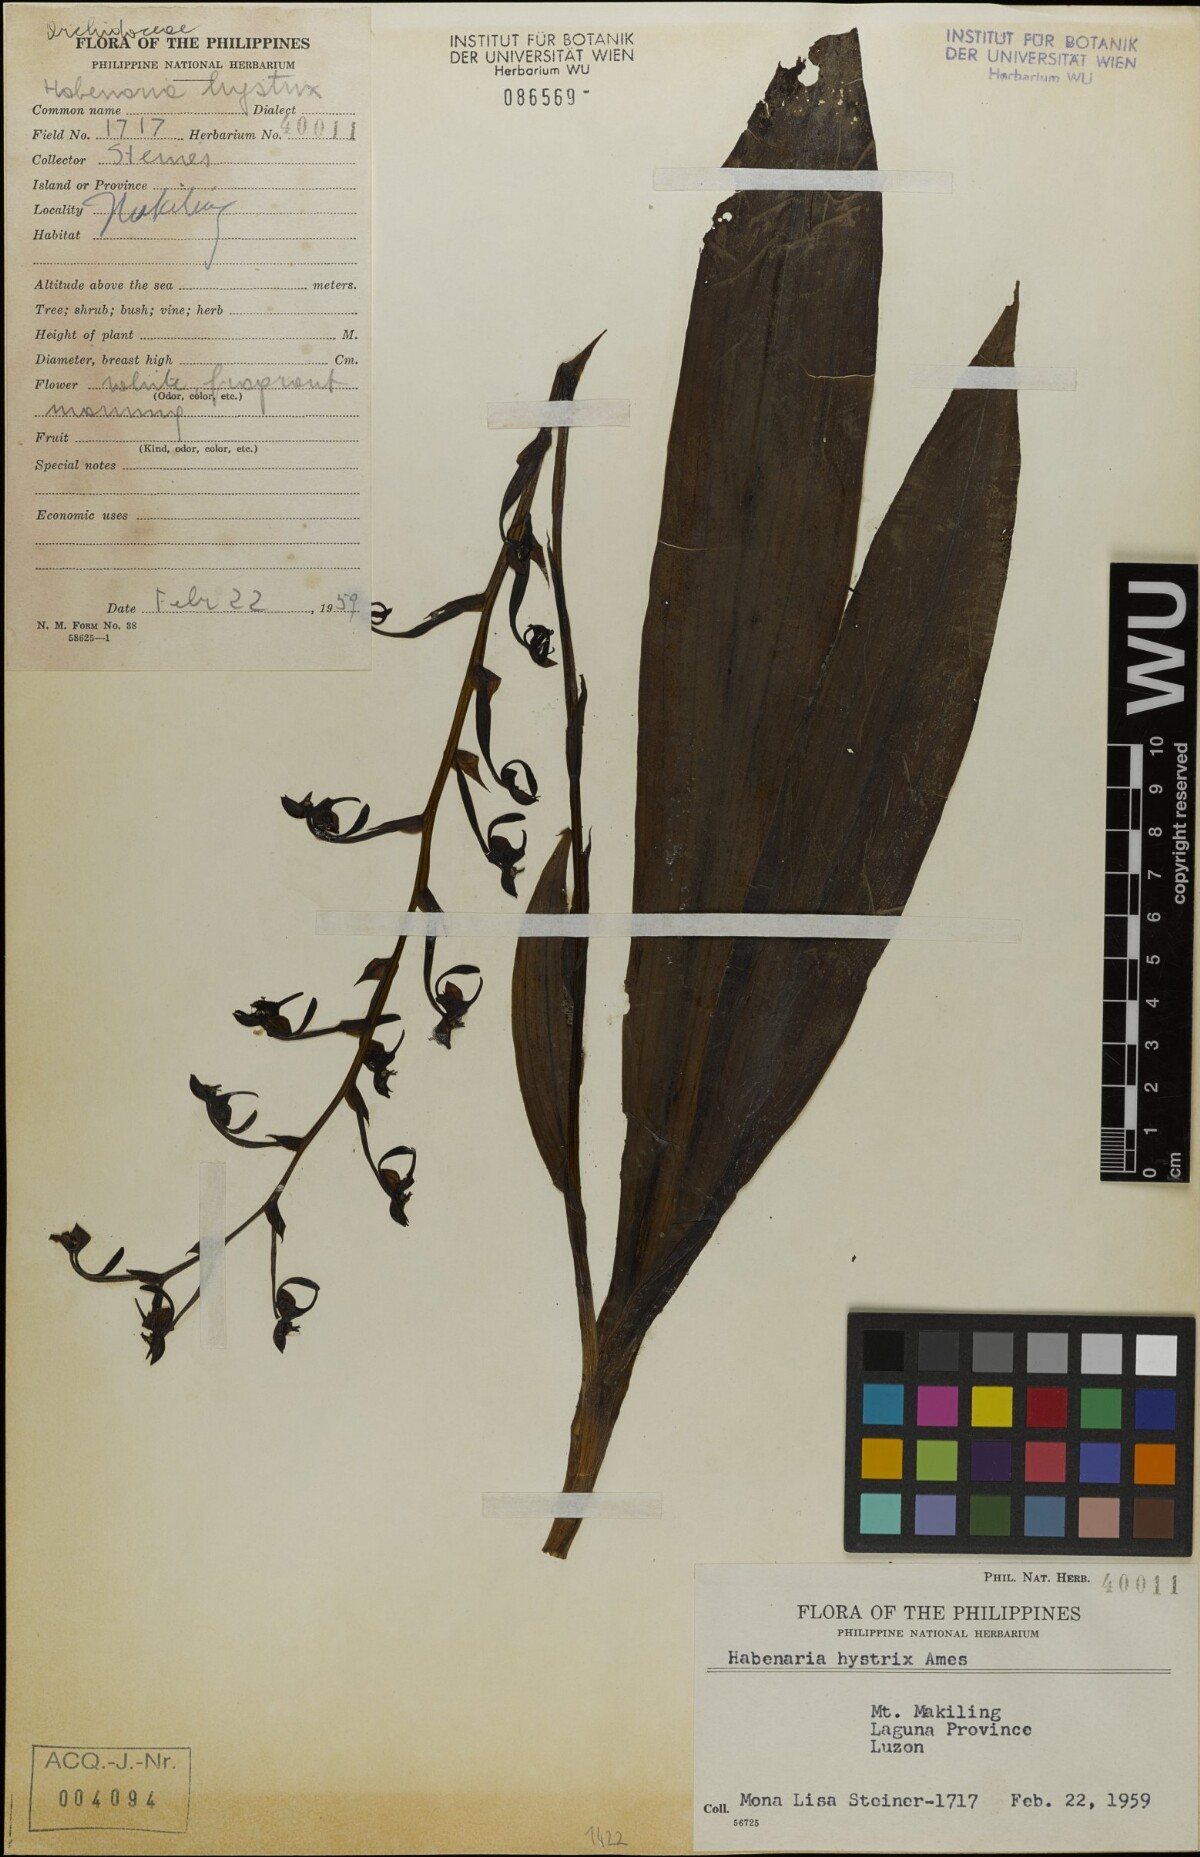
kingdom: Plantae
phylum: Tracheophyta
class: Liliopsida
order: Asparagales
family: Orchidaceae
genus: Habenaria
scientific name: Habenaria muricata
